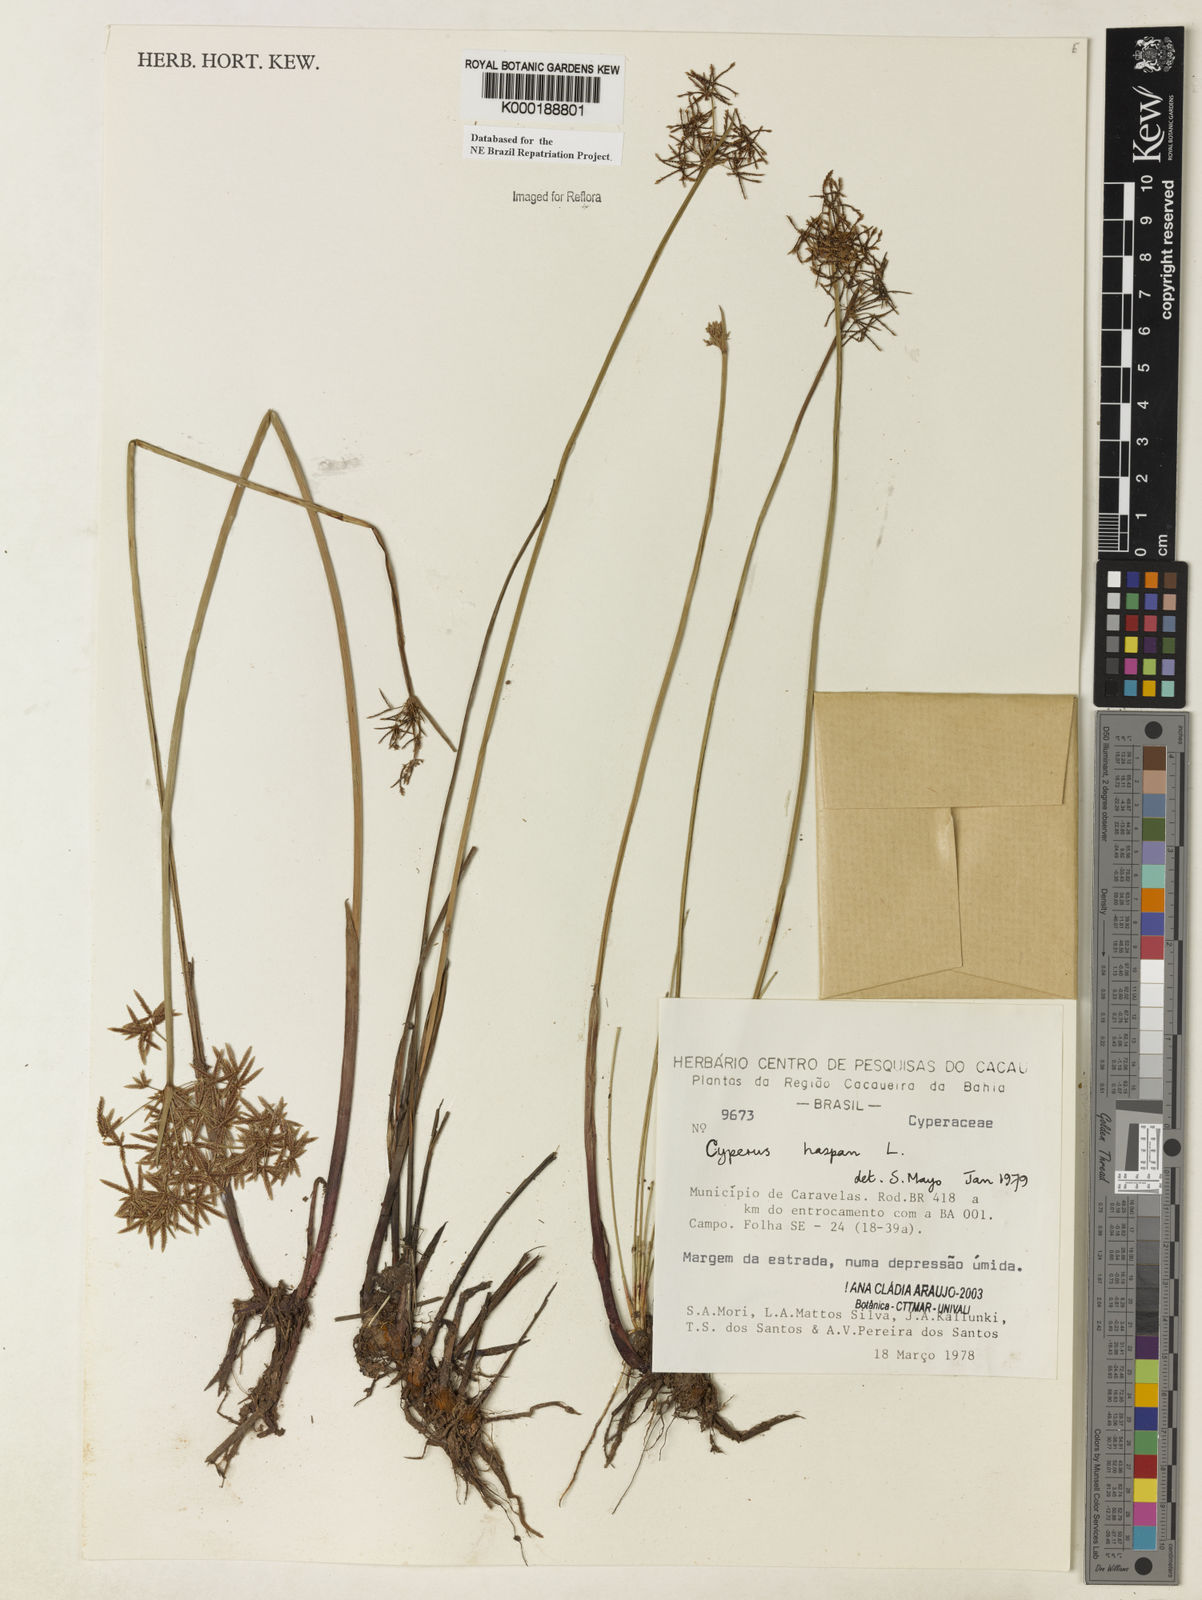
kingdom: Plantae
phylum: Tracheophyta
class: Liliopsida
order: Poales
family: Cyperaceae
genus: Cyperus
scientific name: Cyperus haspan
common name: Haspan flatsedge
